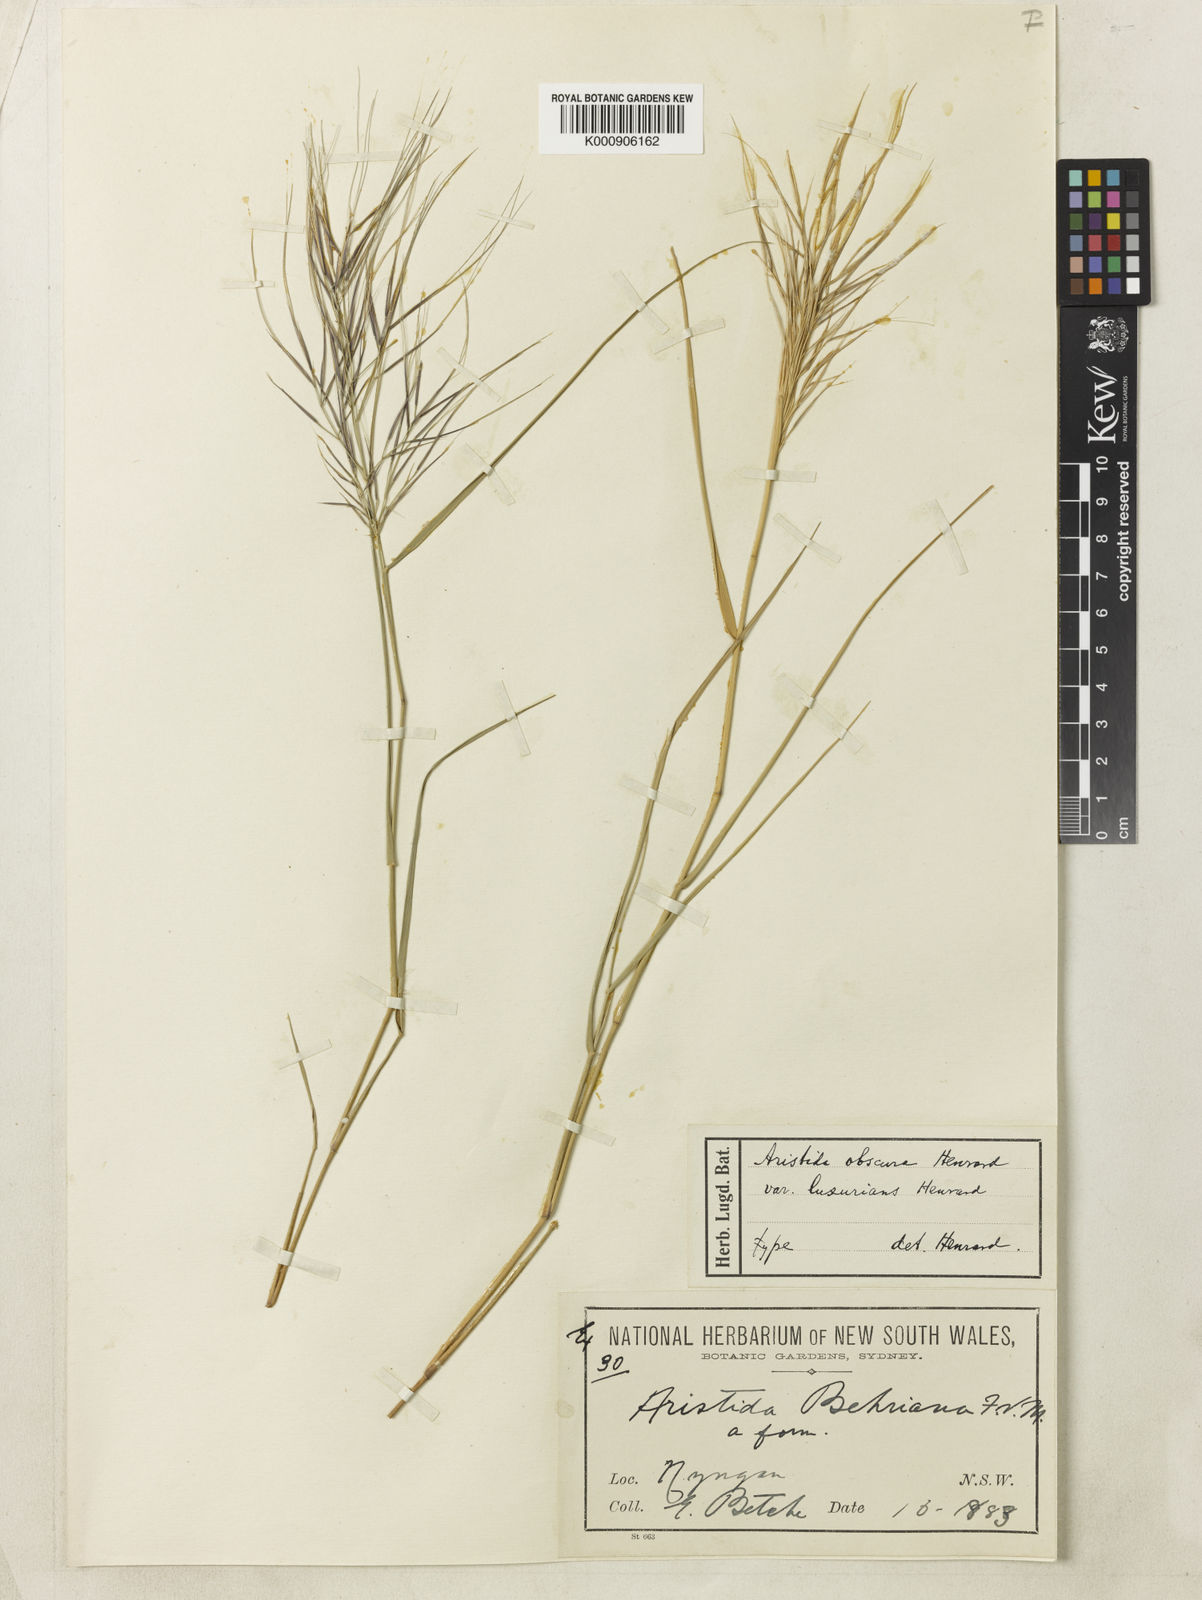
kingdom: Plantae
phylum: Tracheophyta
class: Liliopsida
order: Poales
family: Poaceae
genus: Aristida
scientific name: Aristida obscura
